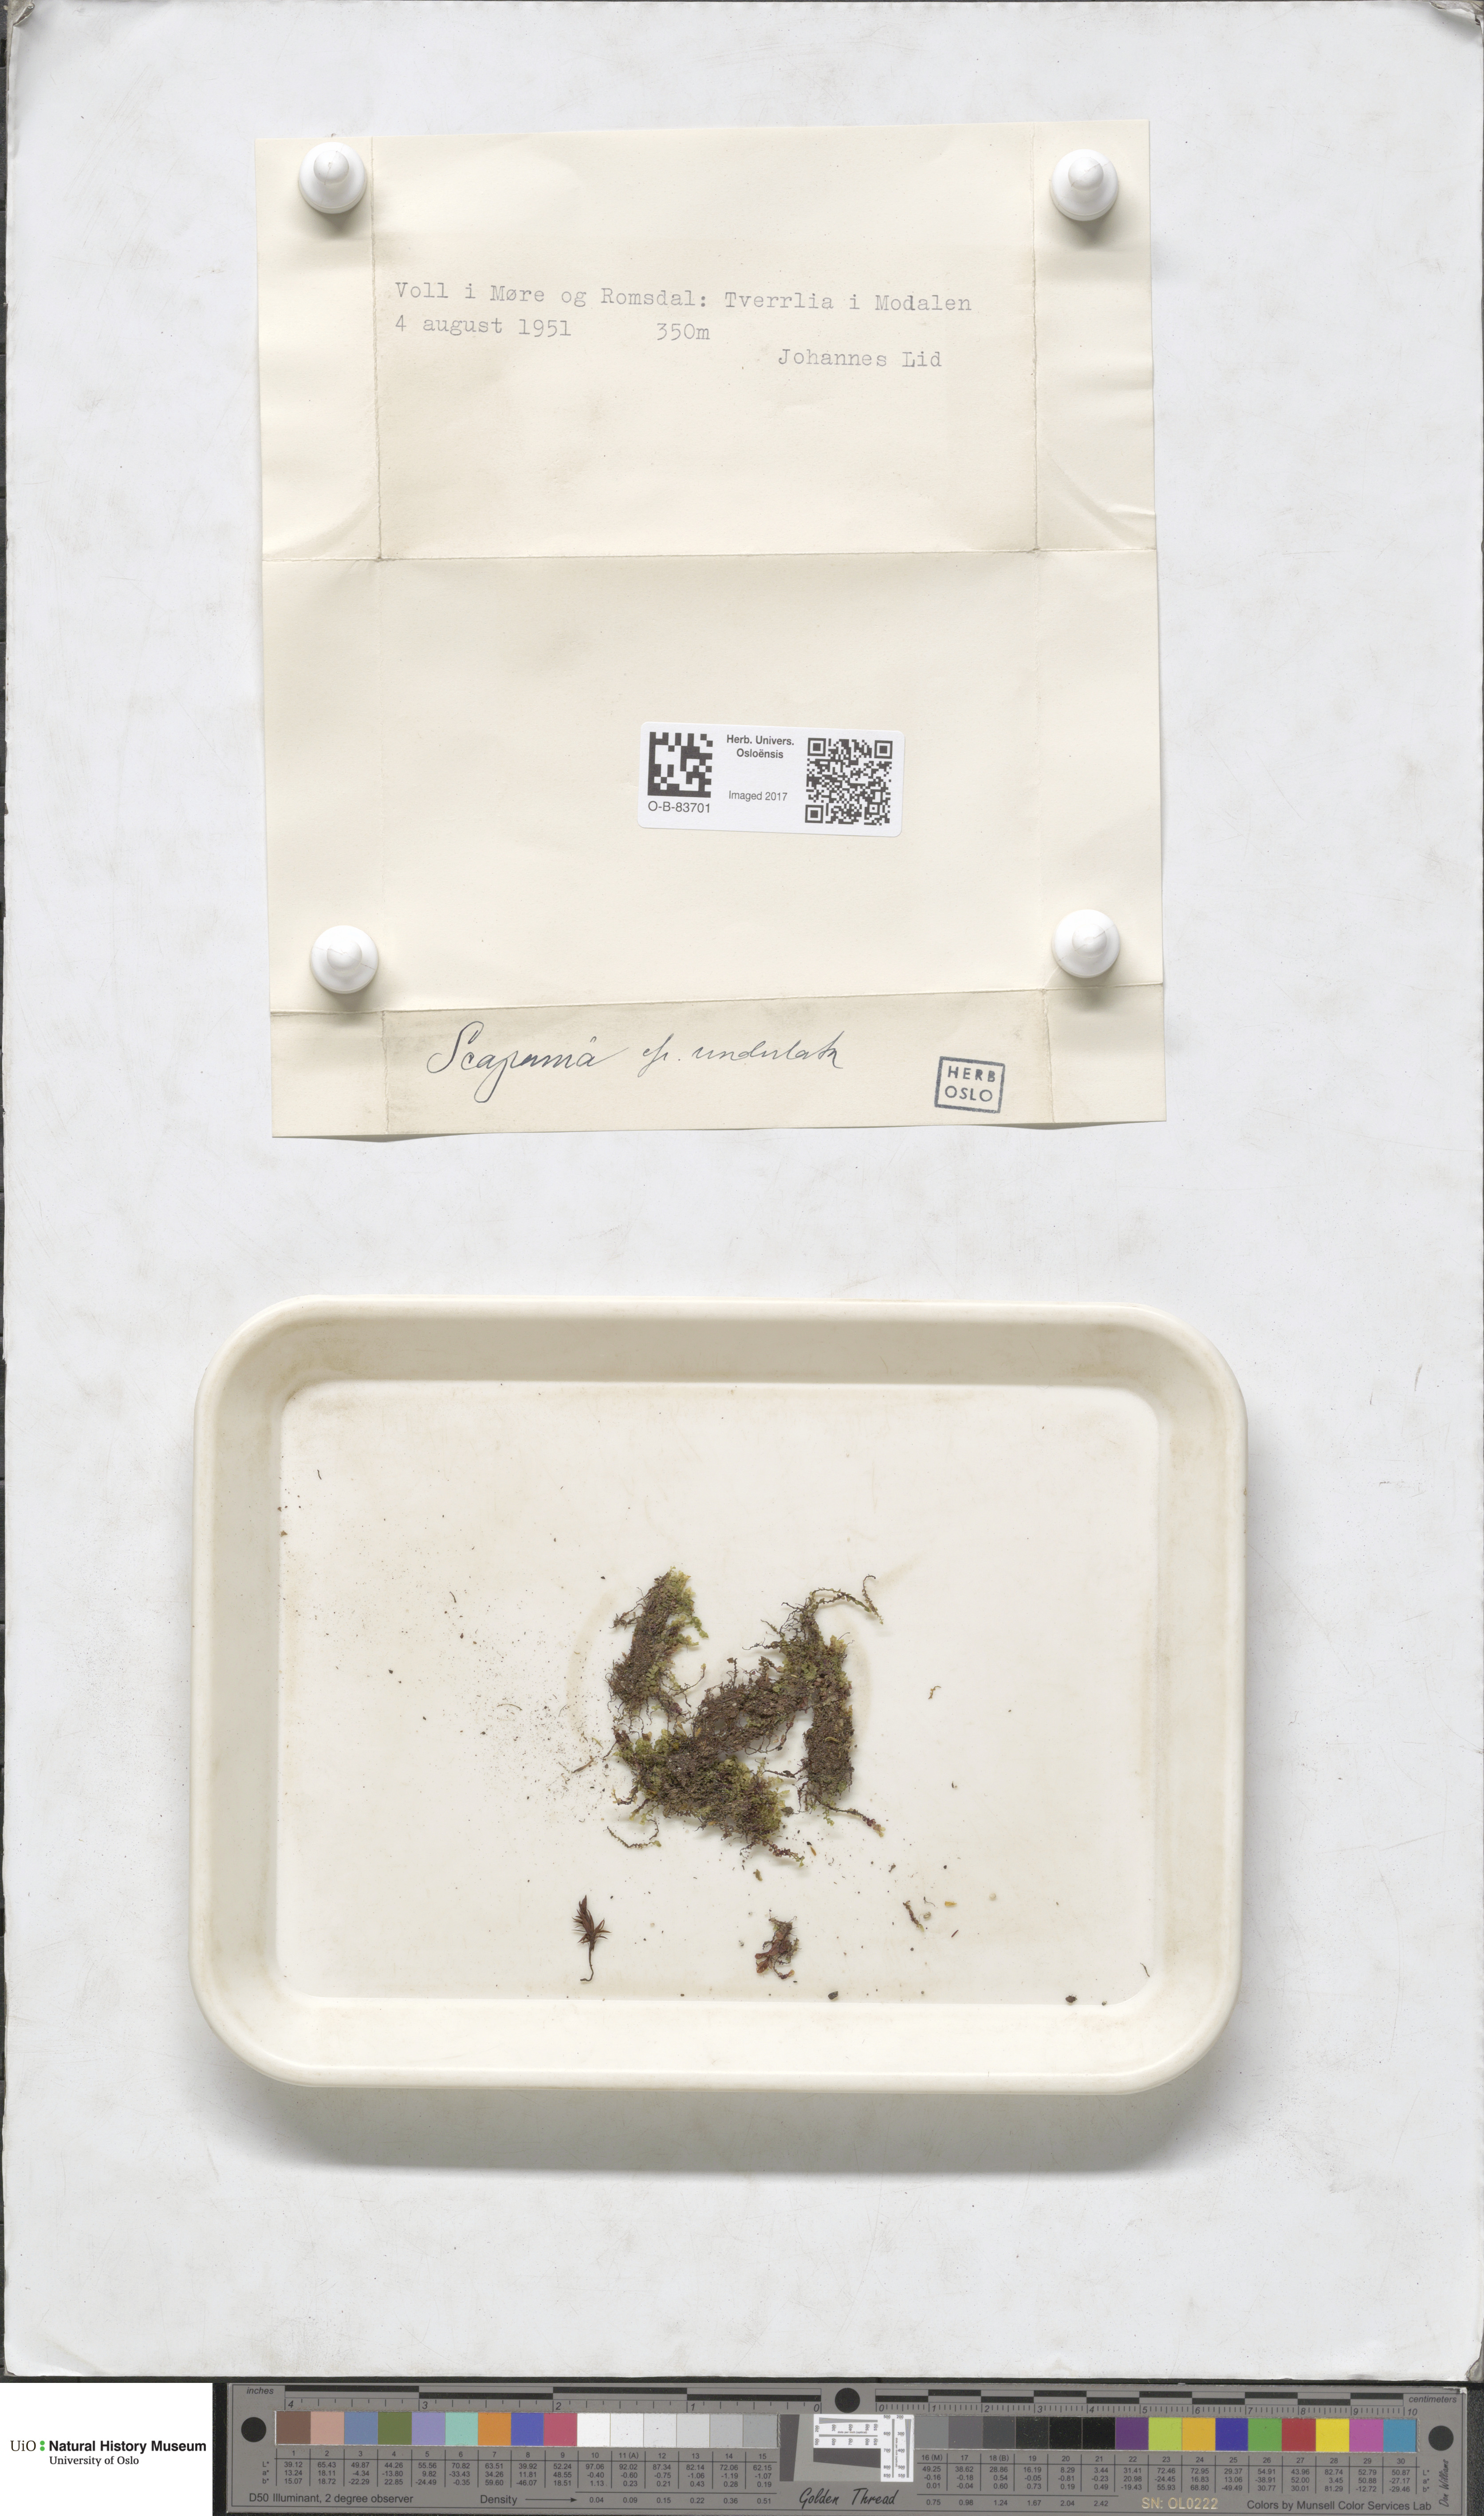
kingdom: Plantae
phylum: Marchantiophyta
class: Jungermanniopsida
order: Jungermanniales
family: Scapaniaceae
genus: Scapania
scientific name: Scapania undulata
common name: Water earwort
